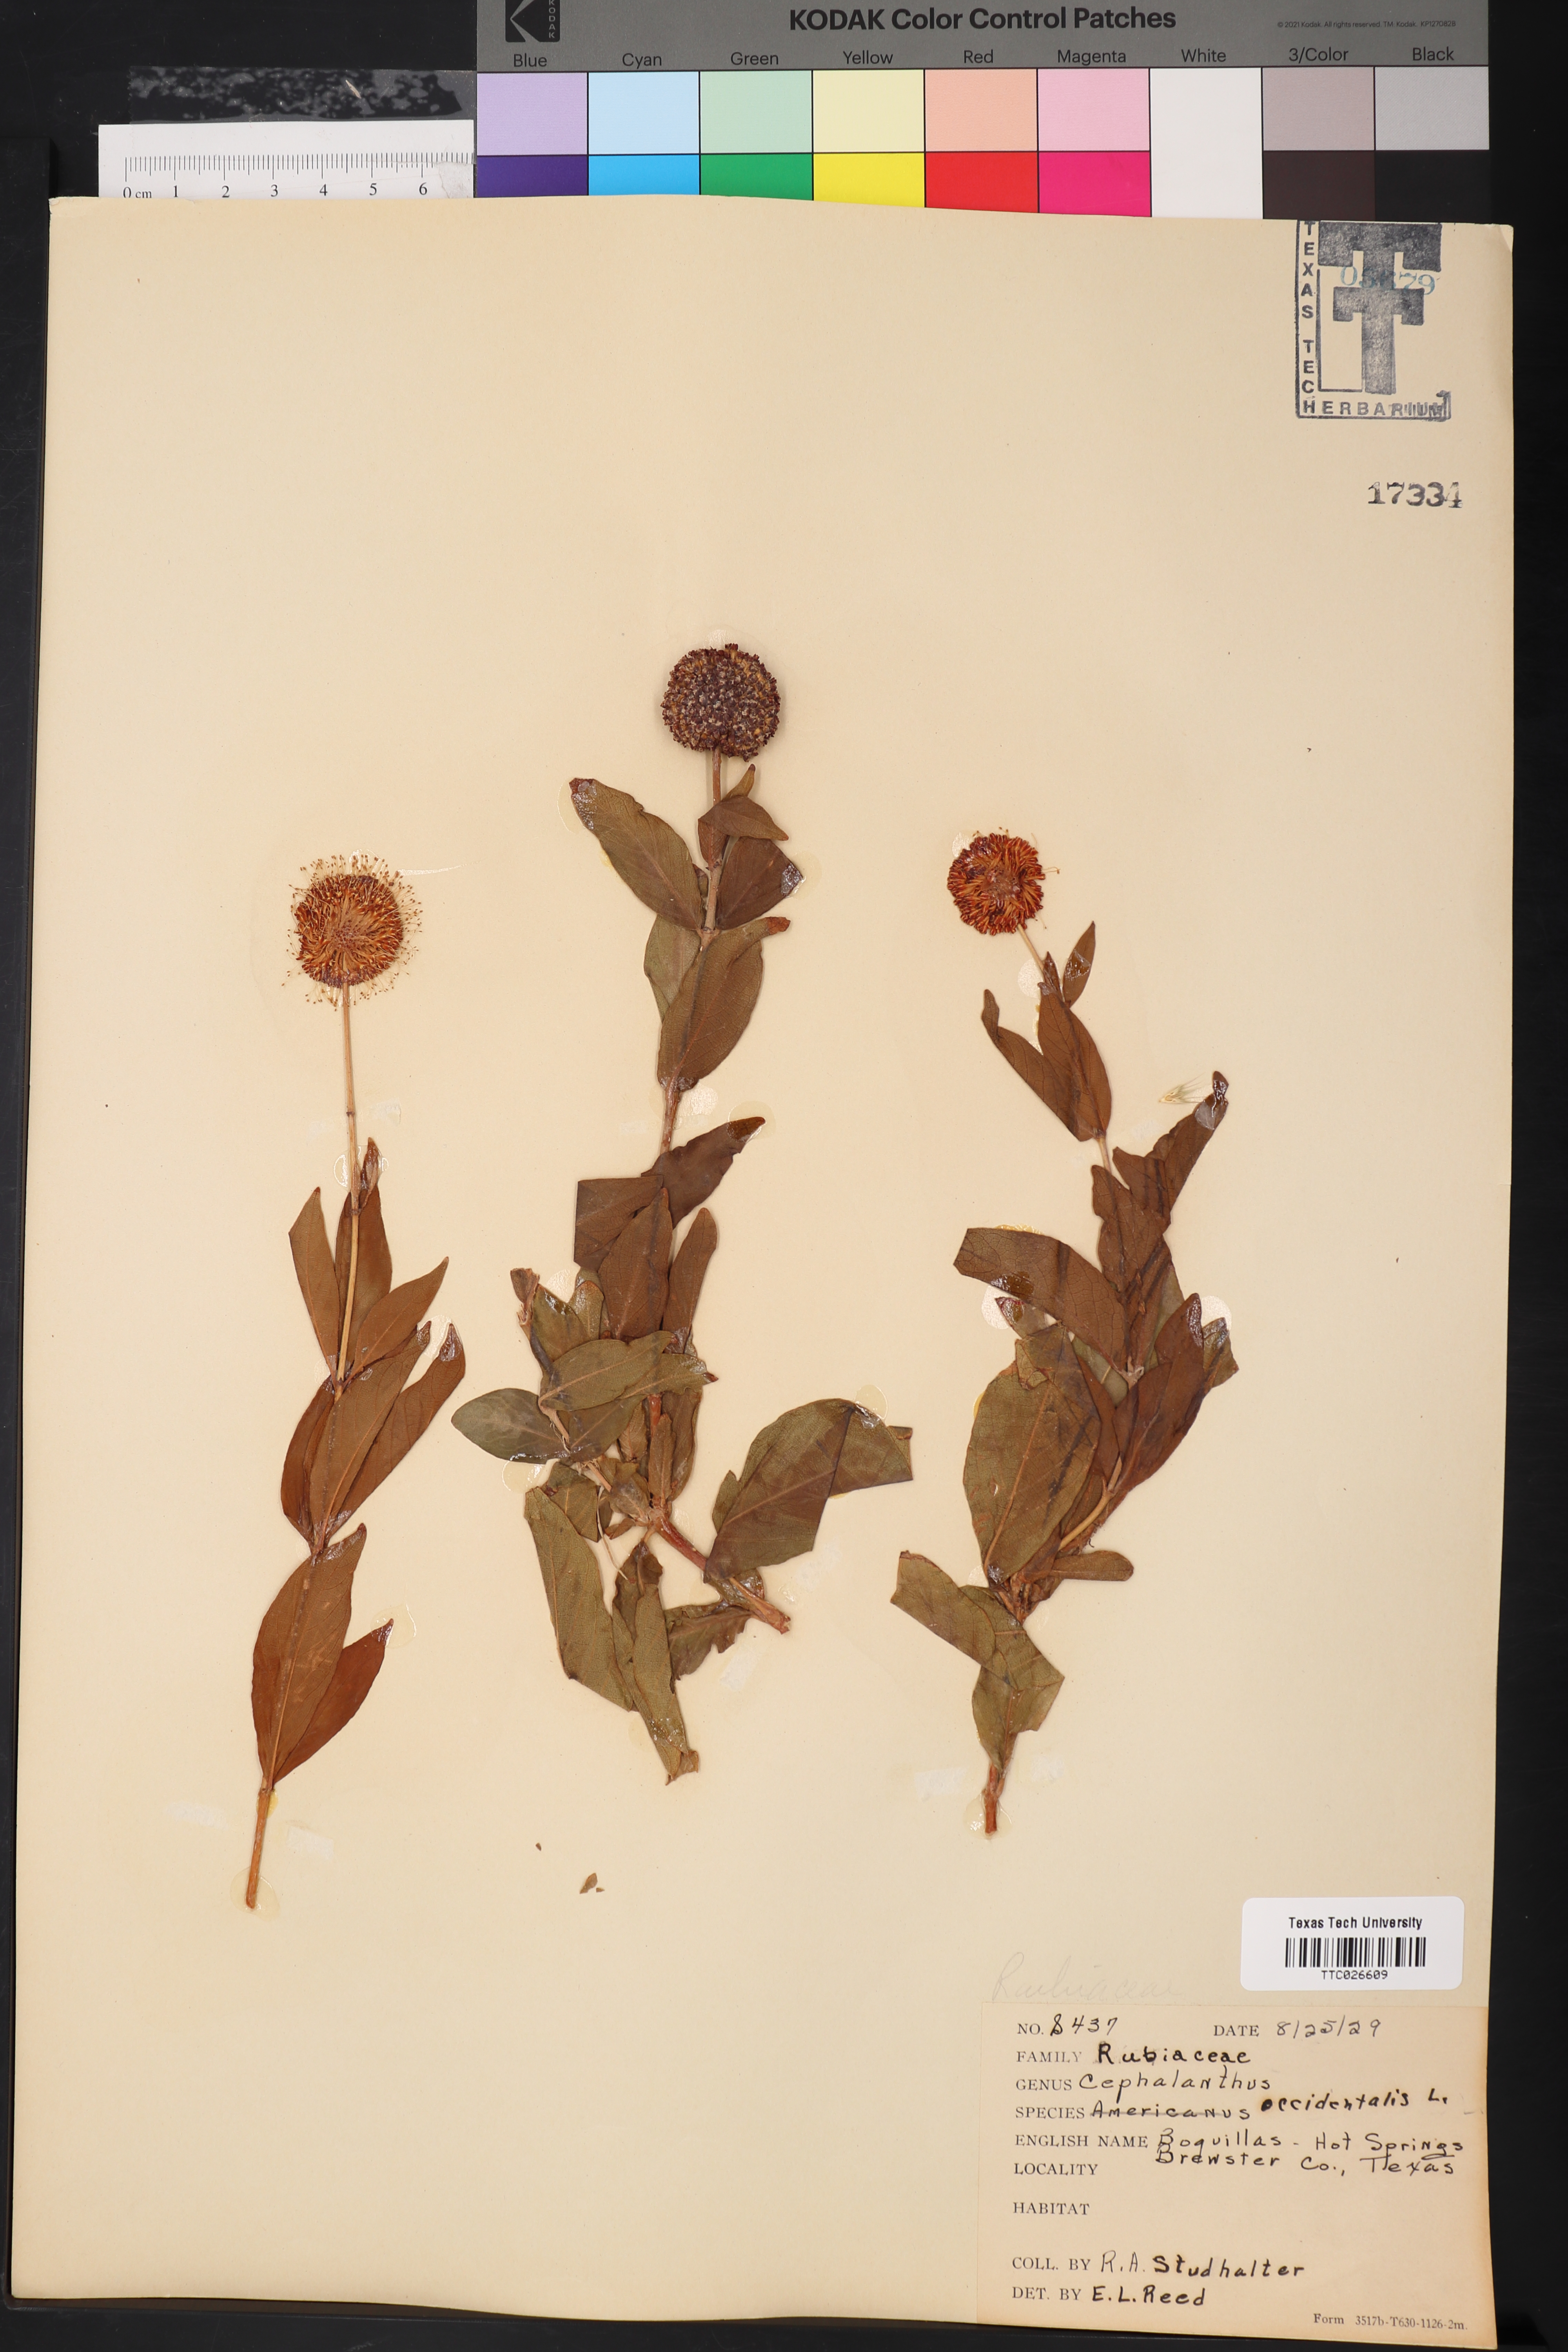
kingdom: Plantae
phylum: Tracheophyta
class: Magnoliopsida
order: Gentianales
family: Rubiaceae
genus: Cephalanthus
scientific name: Cephalanthus occidentalis
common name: Button-willow
